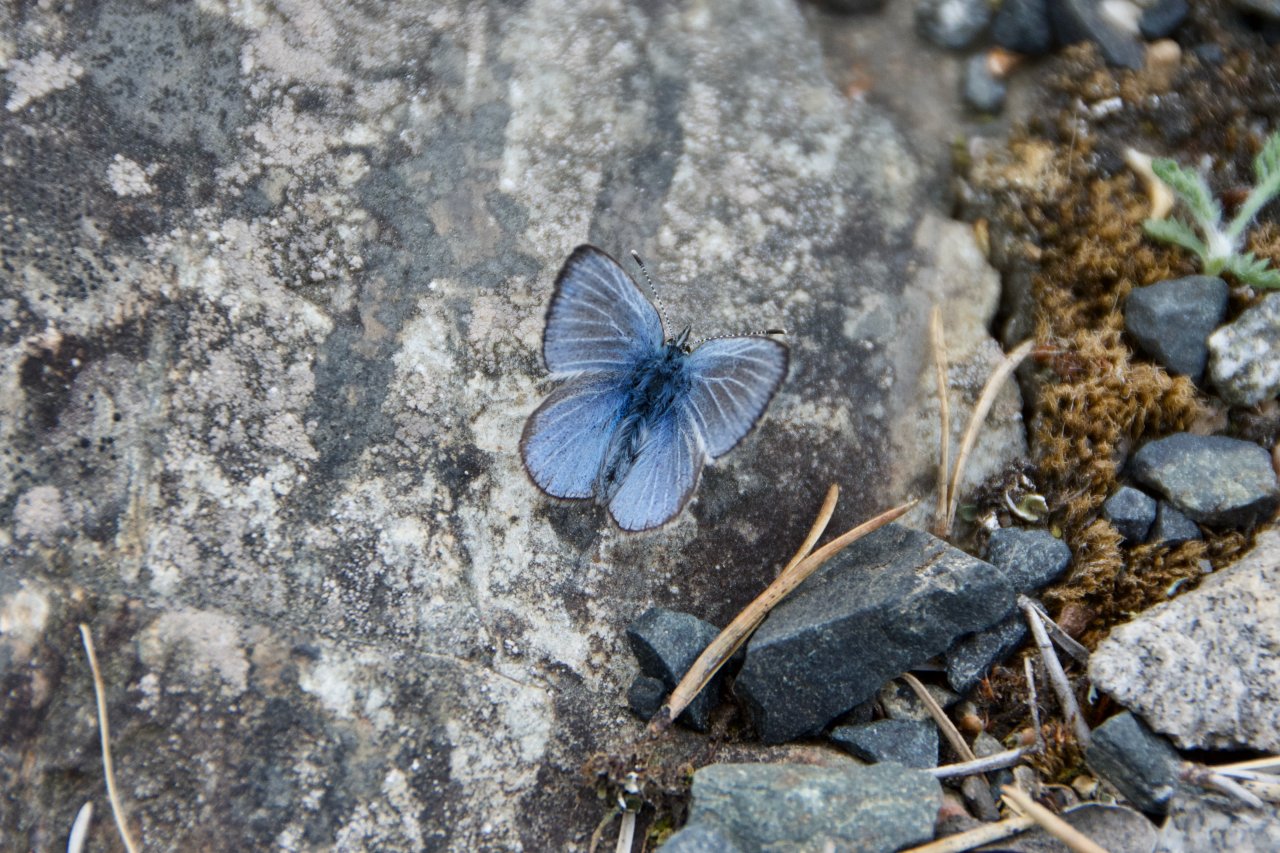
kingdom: Animalia
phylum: Arthropoda
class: Insecta
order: Lepidoptera
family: Lycaenidae
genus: Glaucopsyche
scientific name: Glaucopsyche lygdamus
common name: Silvery Blue
